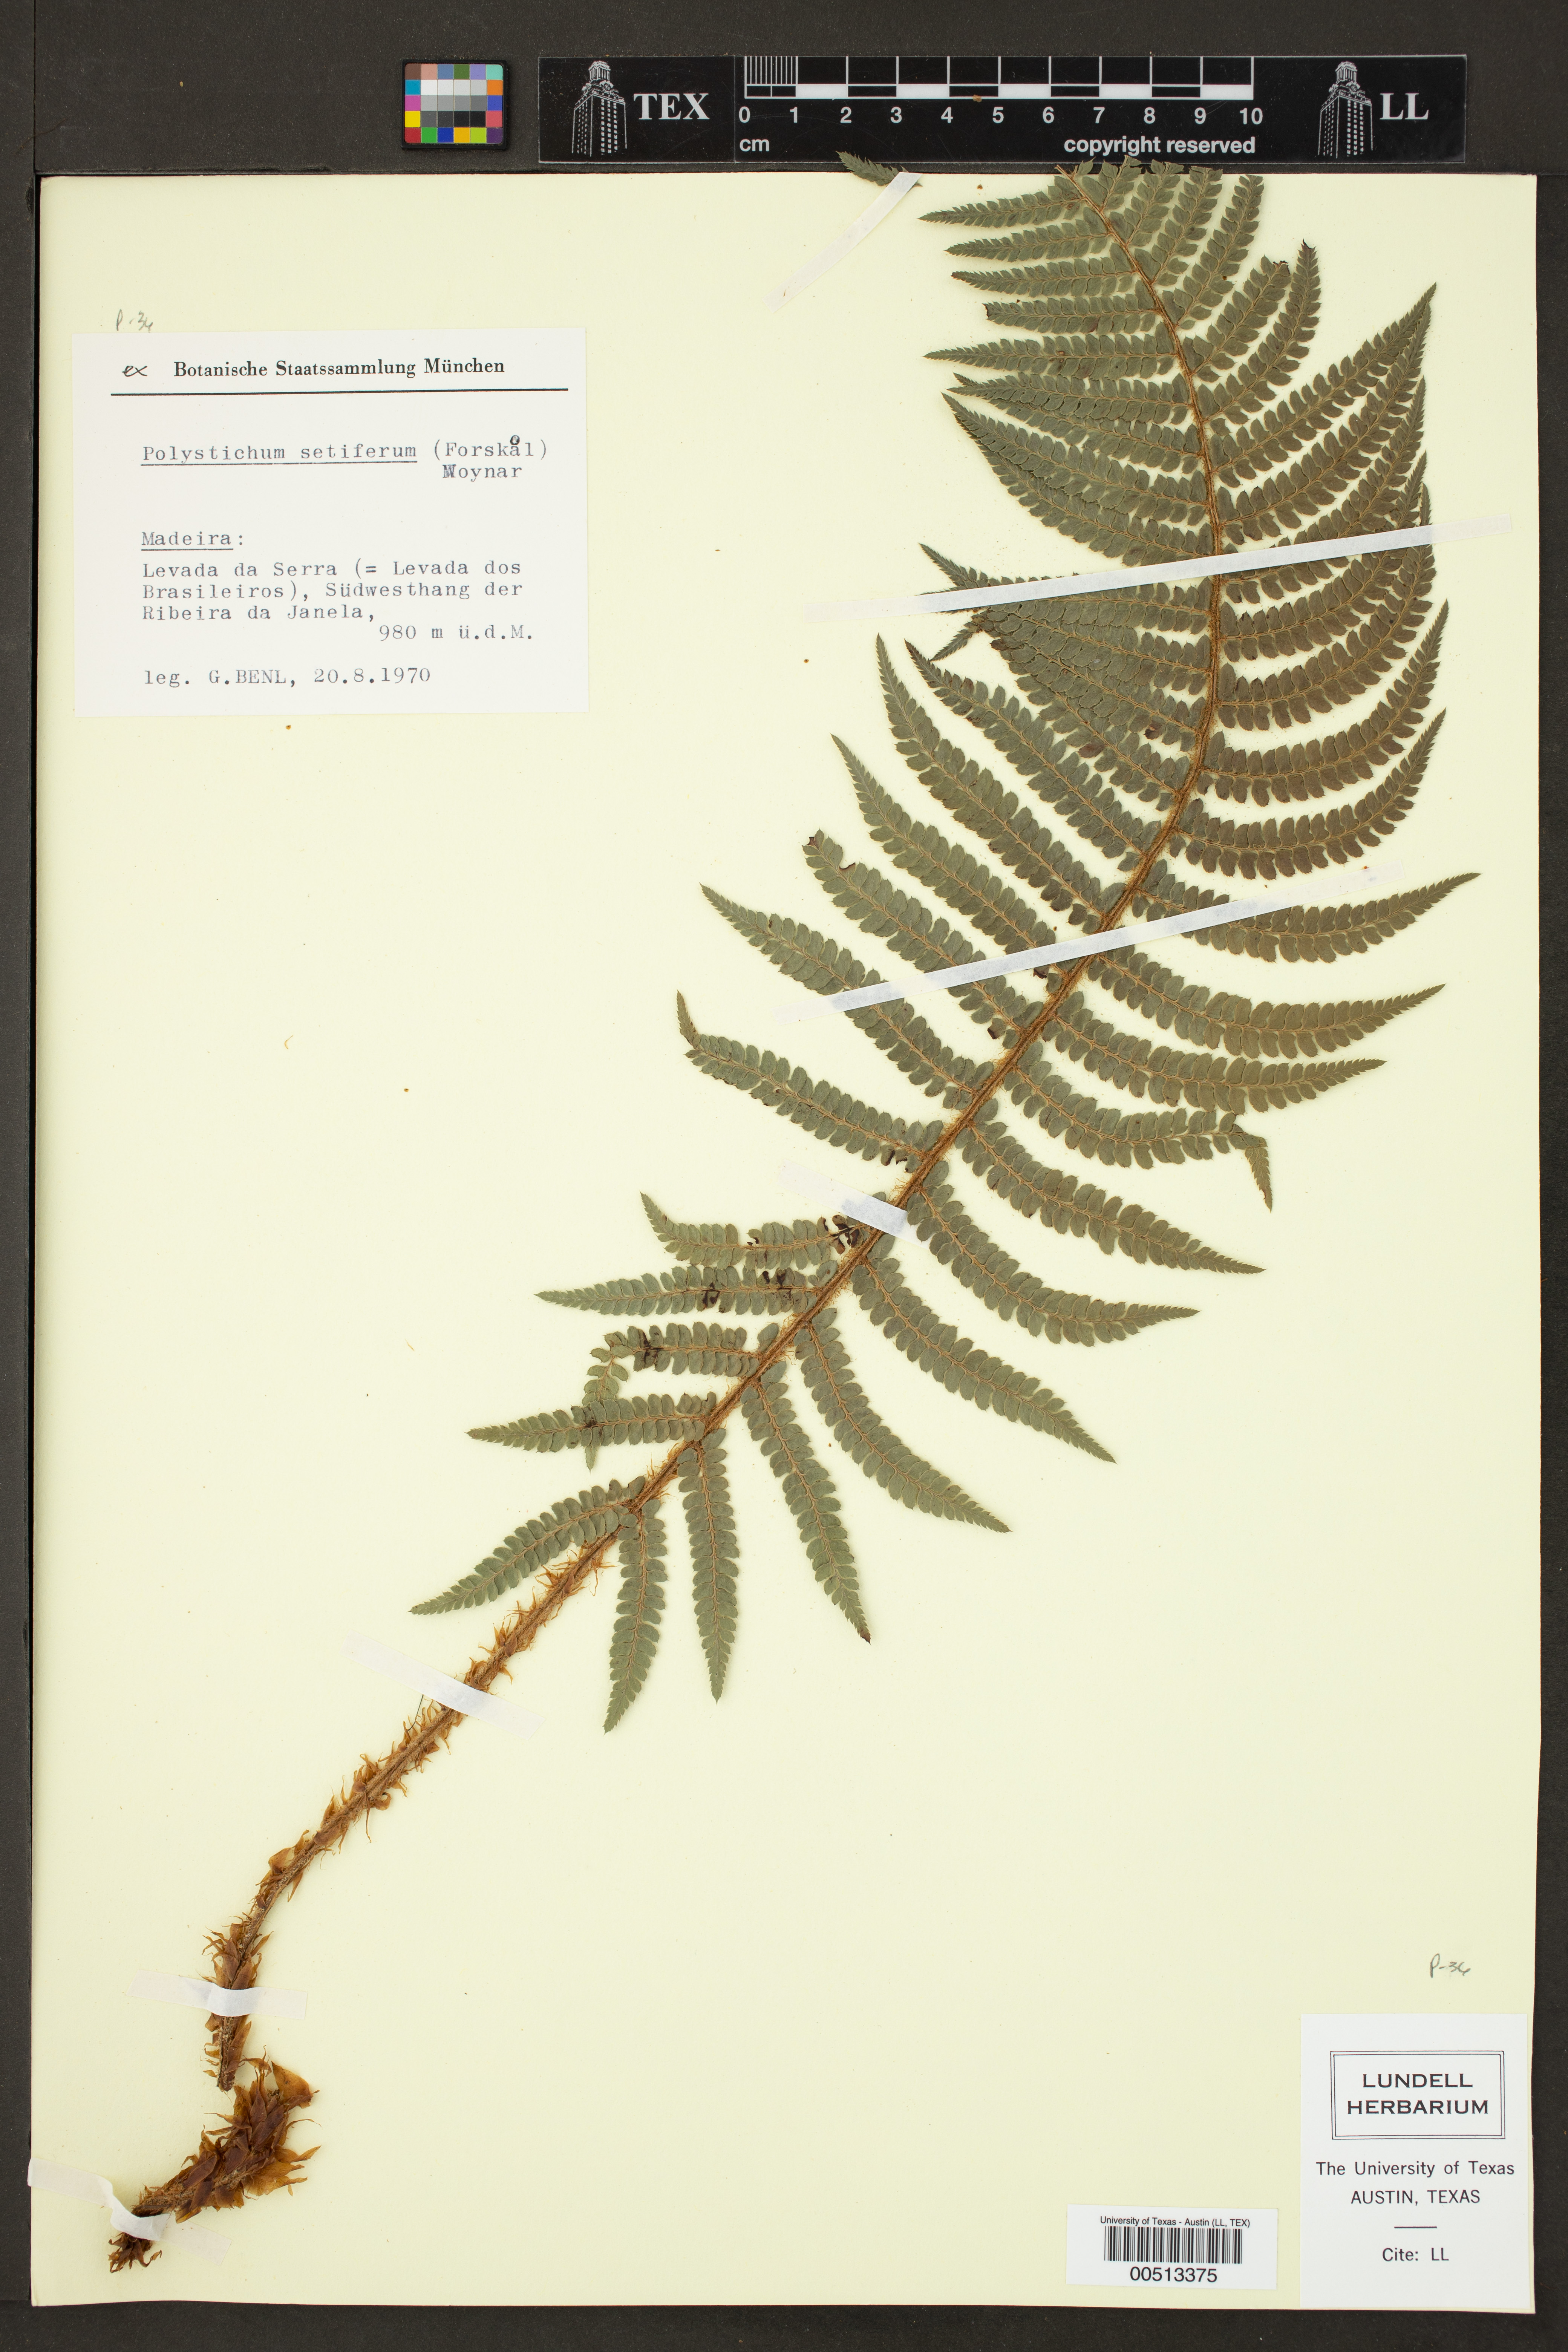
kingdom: Plantae
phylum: Tracheophyta
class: Polypodiopsida
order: Polypodiales
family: Dryopteridaceae
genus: Polystichum
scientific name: Polystichum setiferum
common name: Soft shield-fern
